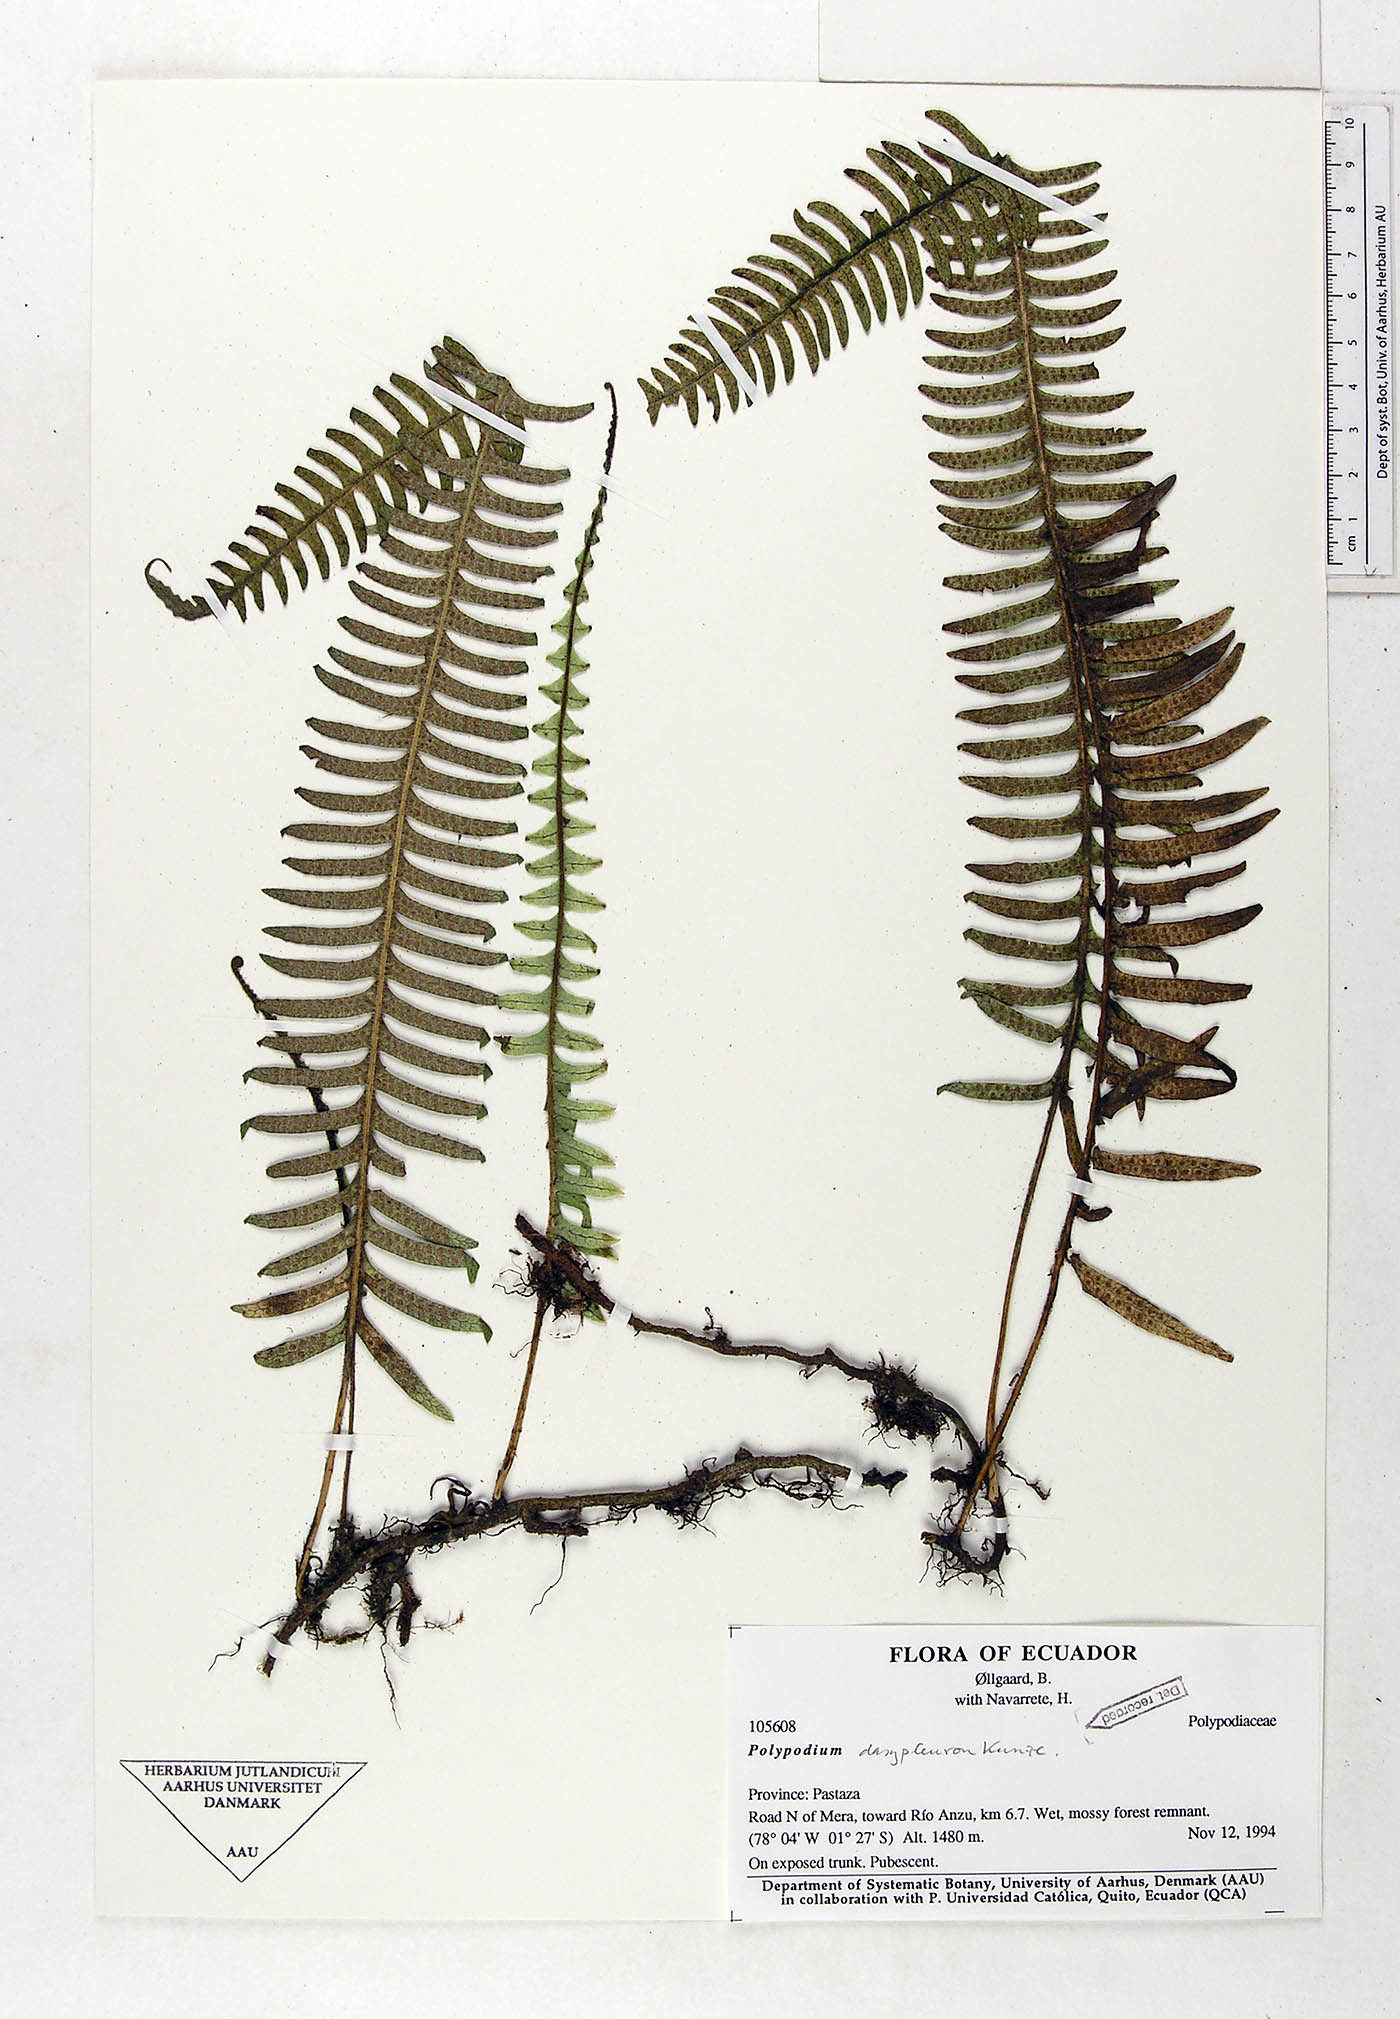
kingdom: Plantae
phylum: Tracheophyta
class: Polypodiopsida
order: Polypodiales
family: Polypodiaceae
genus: Serpocaulon
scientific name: Serpocaulon dasypleuron
